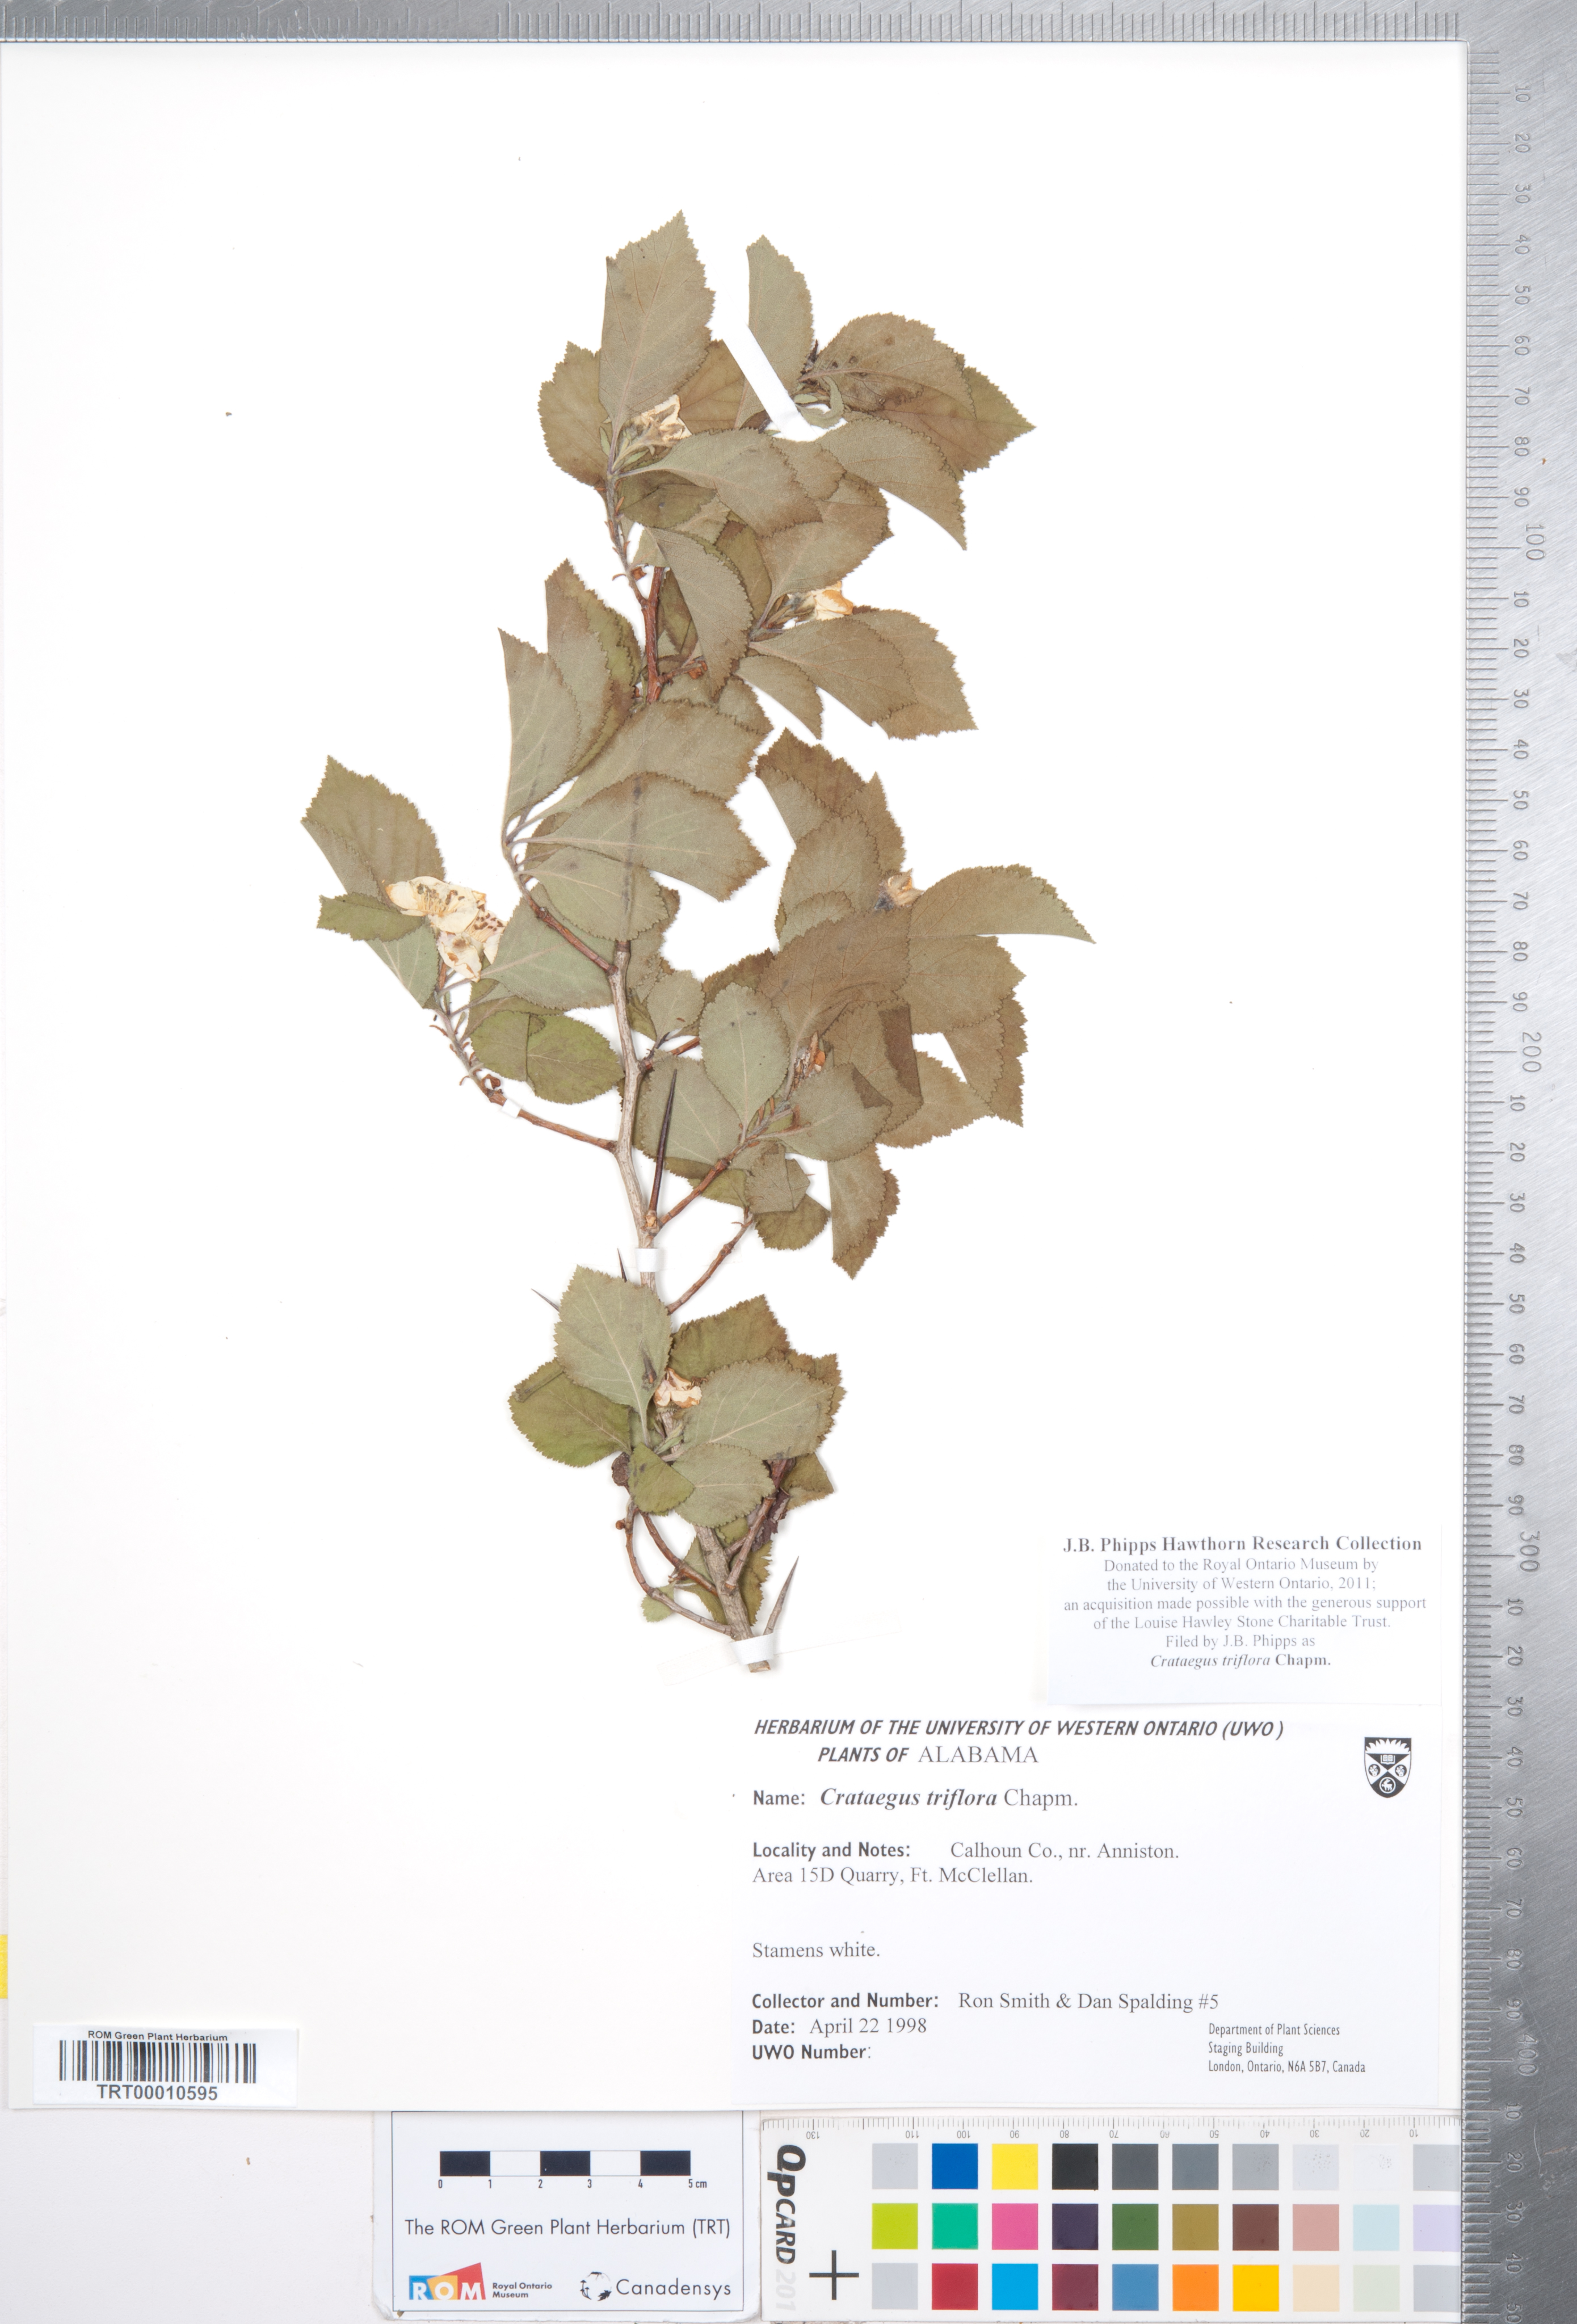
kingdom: Plantae
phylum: Tracheophyta
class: Magnoliopsida
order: Rosales
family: Rosaceae
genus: Crataegus
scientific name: Crataegus triflora
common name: Three-flower hawthorn
